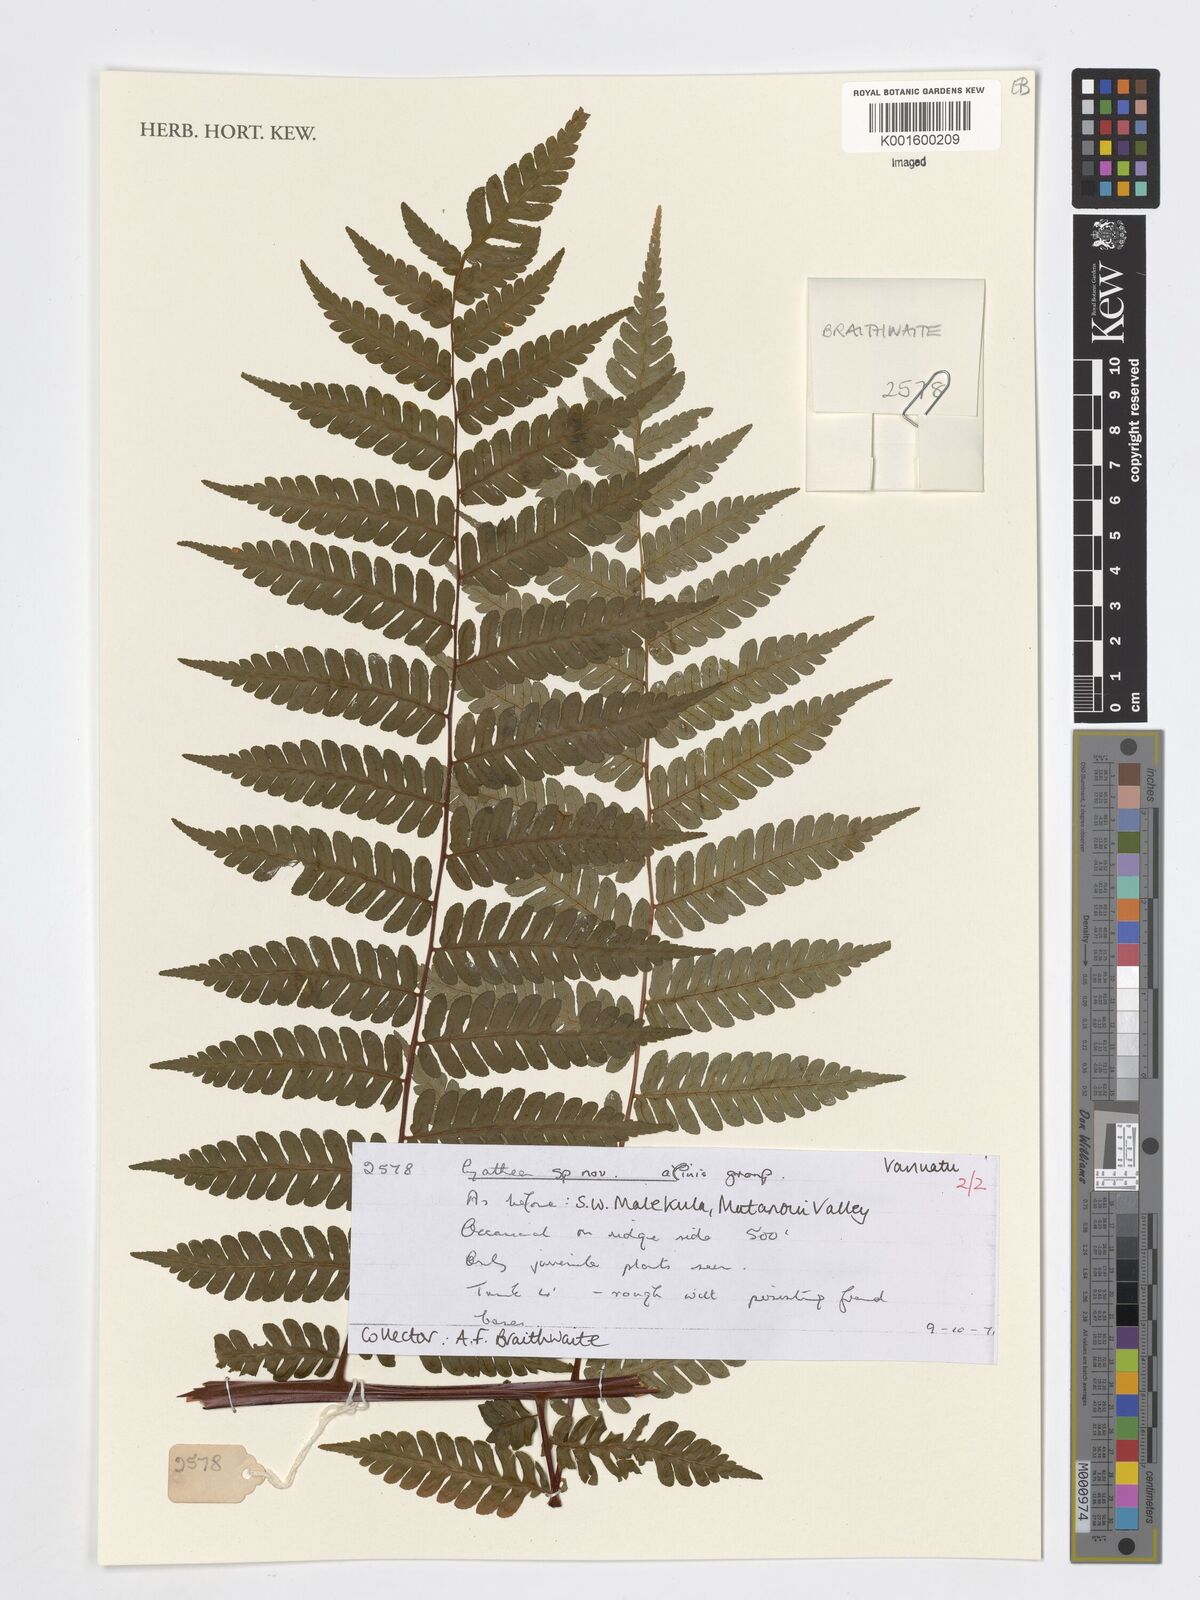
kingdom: Plantae
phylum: Tracheophyta
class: Polypodiopsida
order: Cyatheales
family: Cyatheaceae
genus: Cyathea
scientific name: Cyathea
